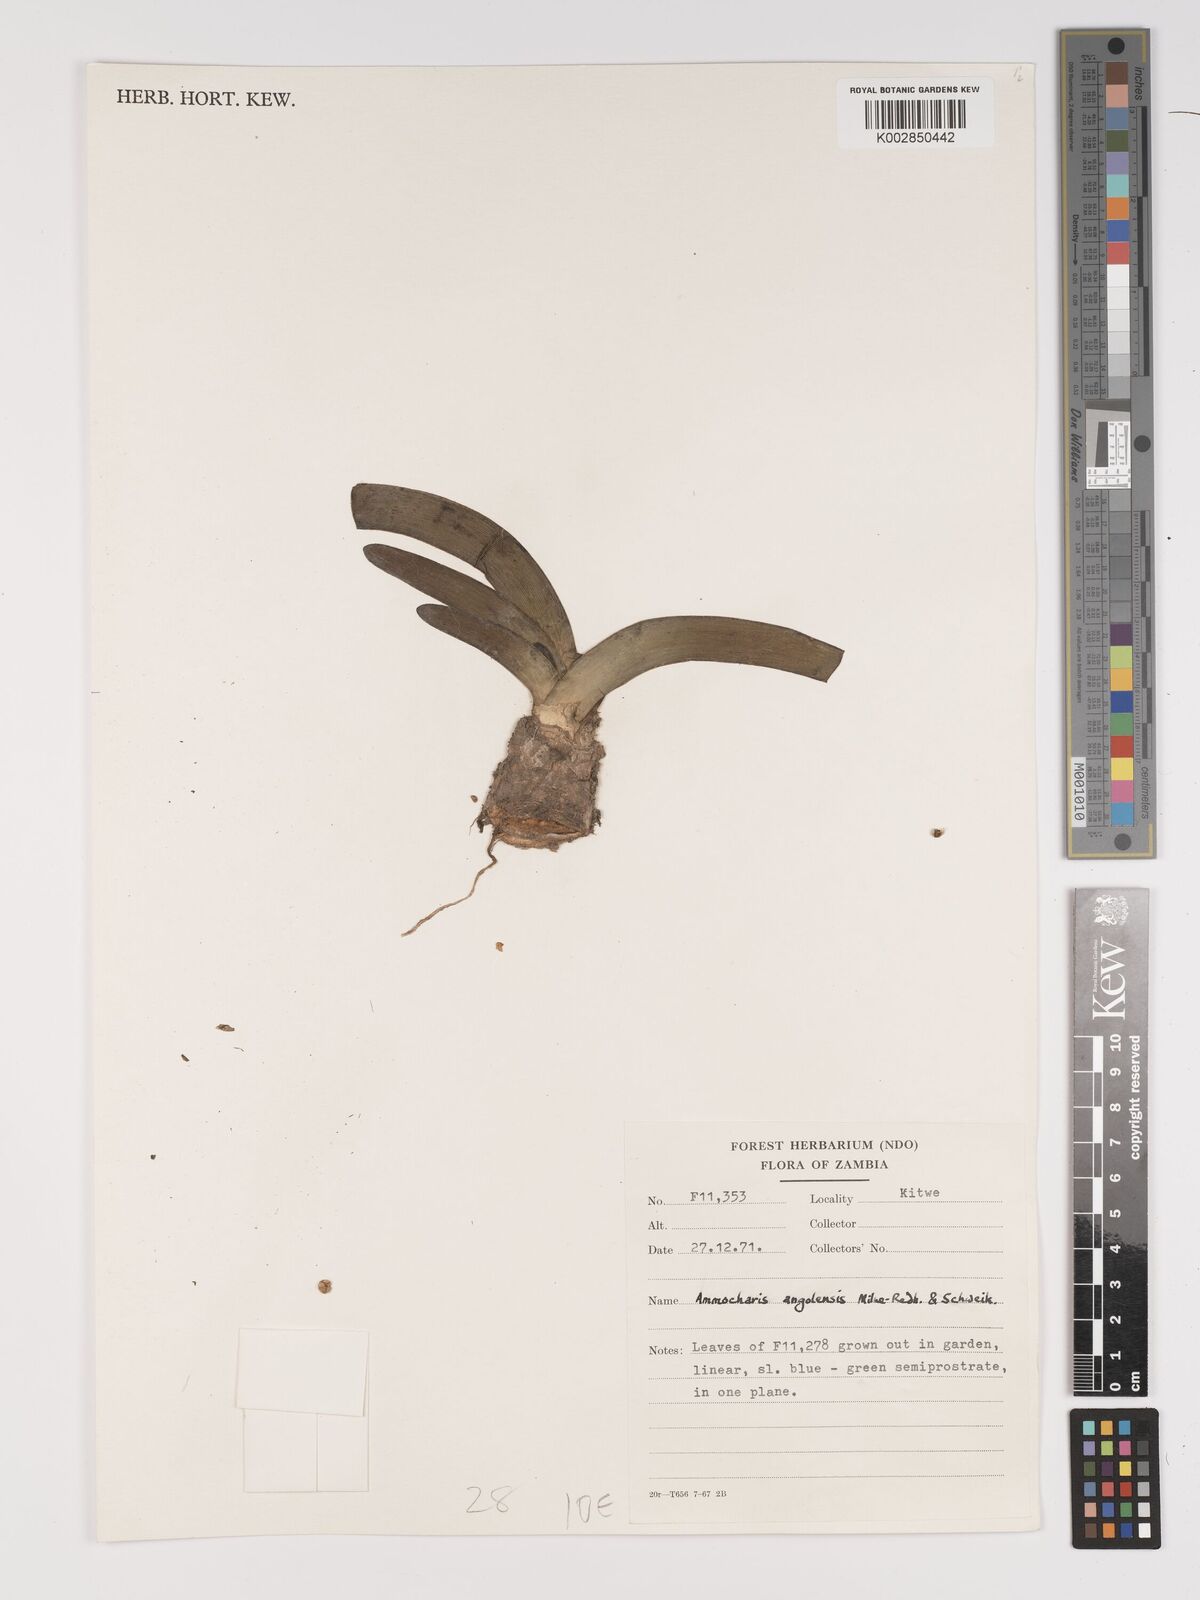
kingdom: Plantae
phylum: Tracheophyta
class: Liliopsida
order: Asparagales
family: Amaryllidaceae
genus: Ammocharis
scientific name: Ammocharis angolensis
